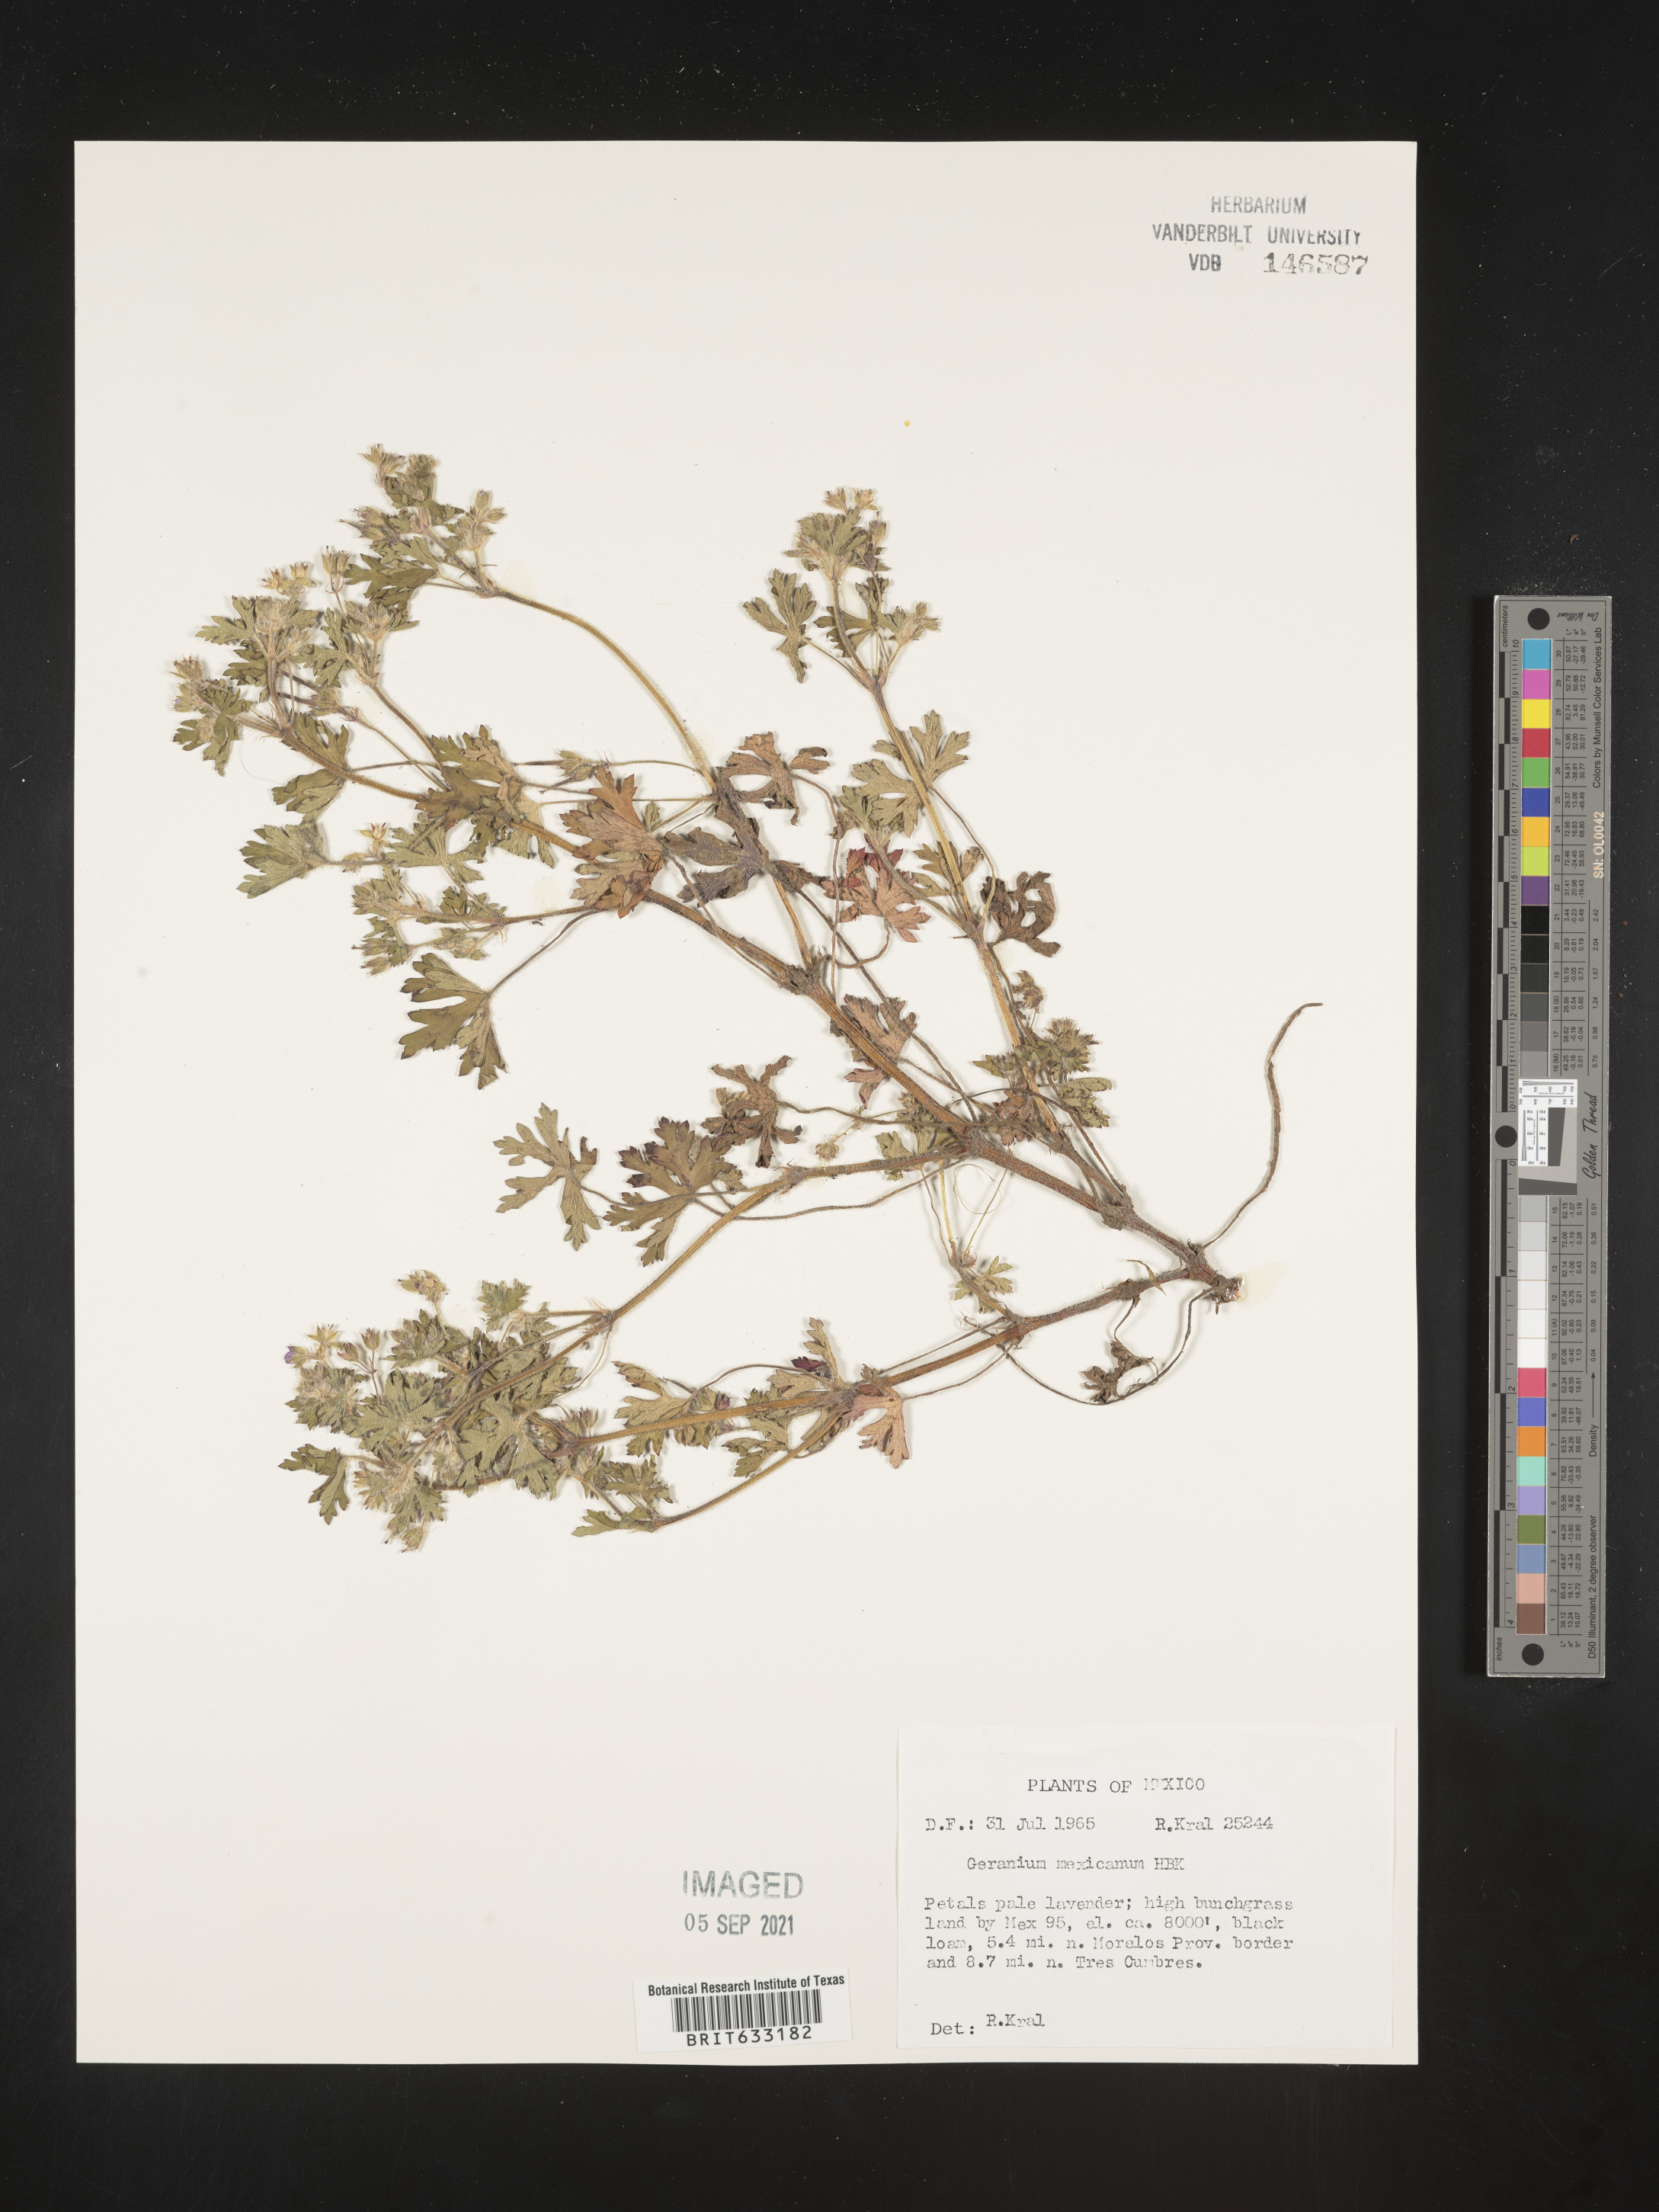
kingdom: Plantae
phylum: Tracheophyta
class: Magnoliopsida
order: Geraniales
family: Geraniaceae
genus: Geranium
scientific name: Geranium
